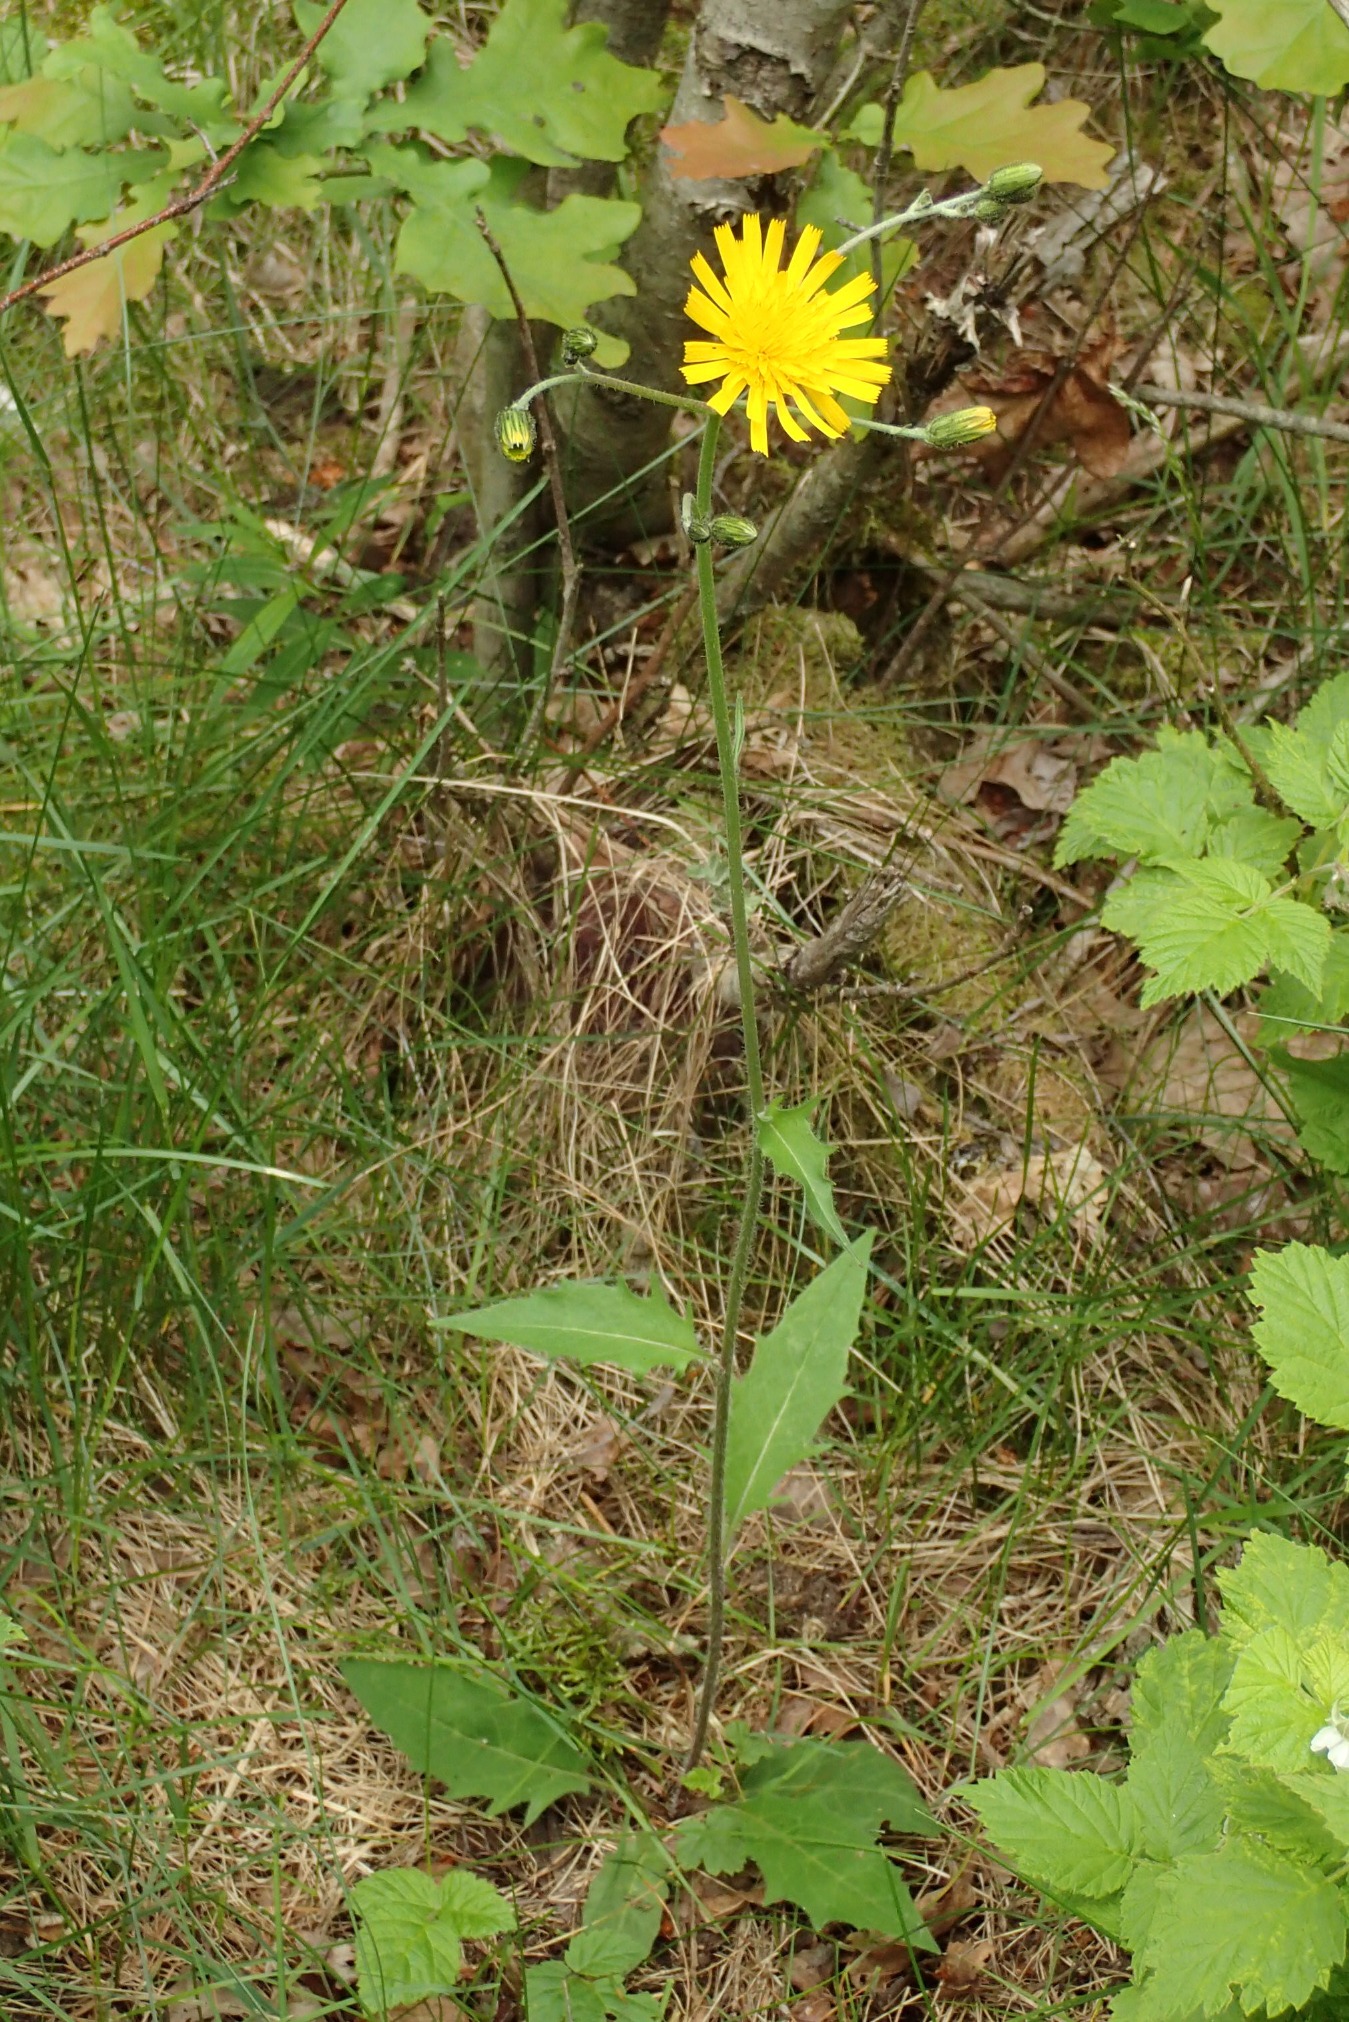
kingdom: Plantae
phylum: Tracheophyta
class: Magnoliopsida
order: Asterales
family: Asteraceae
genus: Hieracium
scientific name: Hieracium lachenalii
